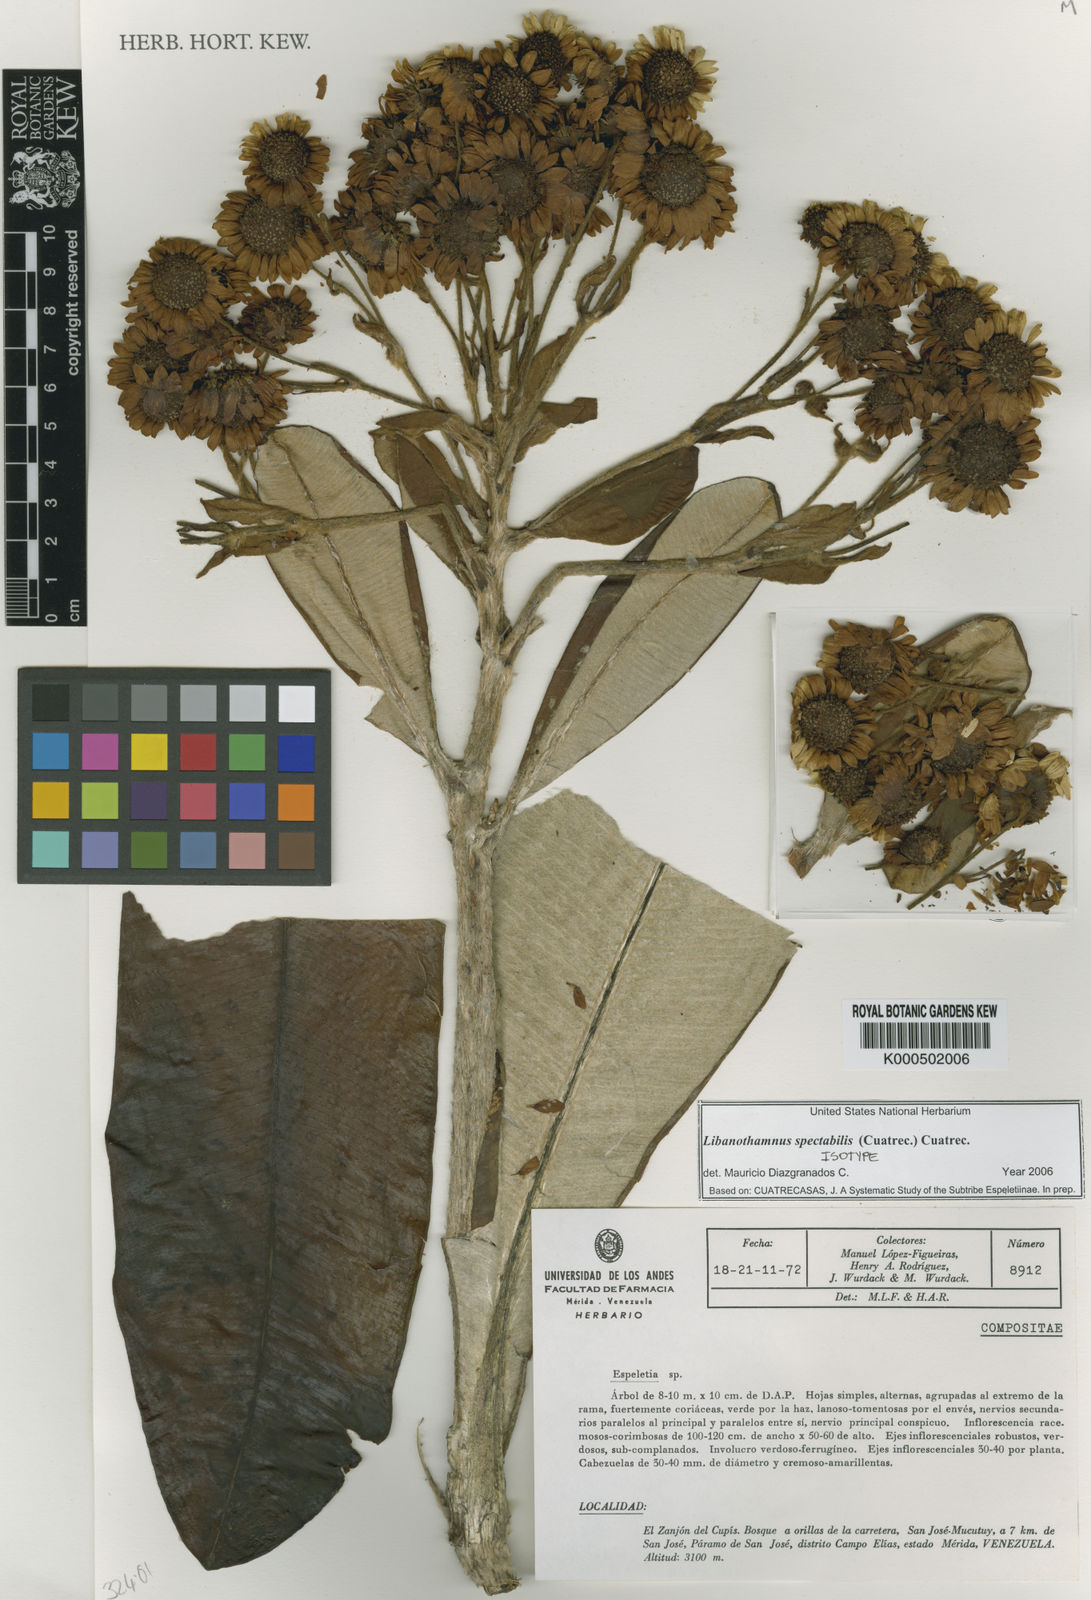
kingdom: Plantae
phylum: Tracheophyta
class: Magnoliopsida
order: Asterales
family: Asteraceae
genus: Espeletia
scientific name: Espeletia spectabilis
